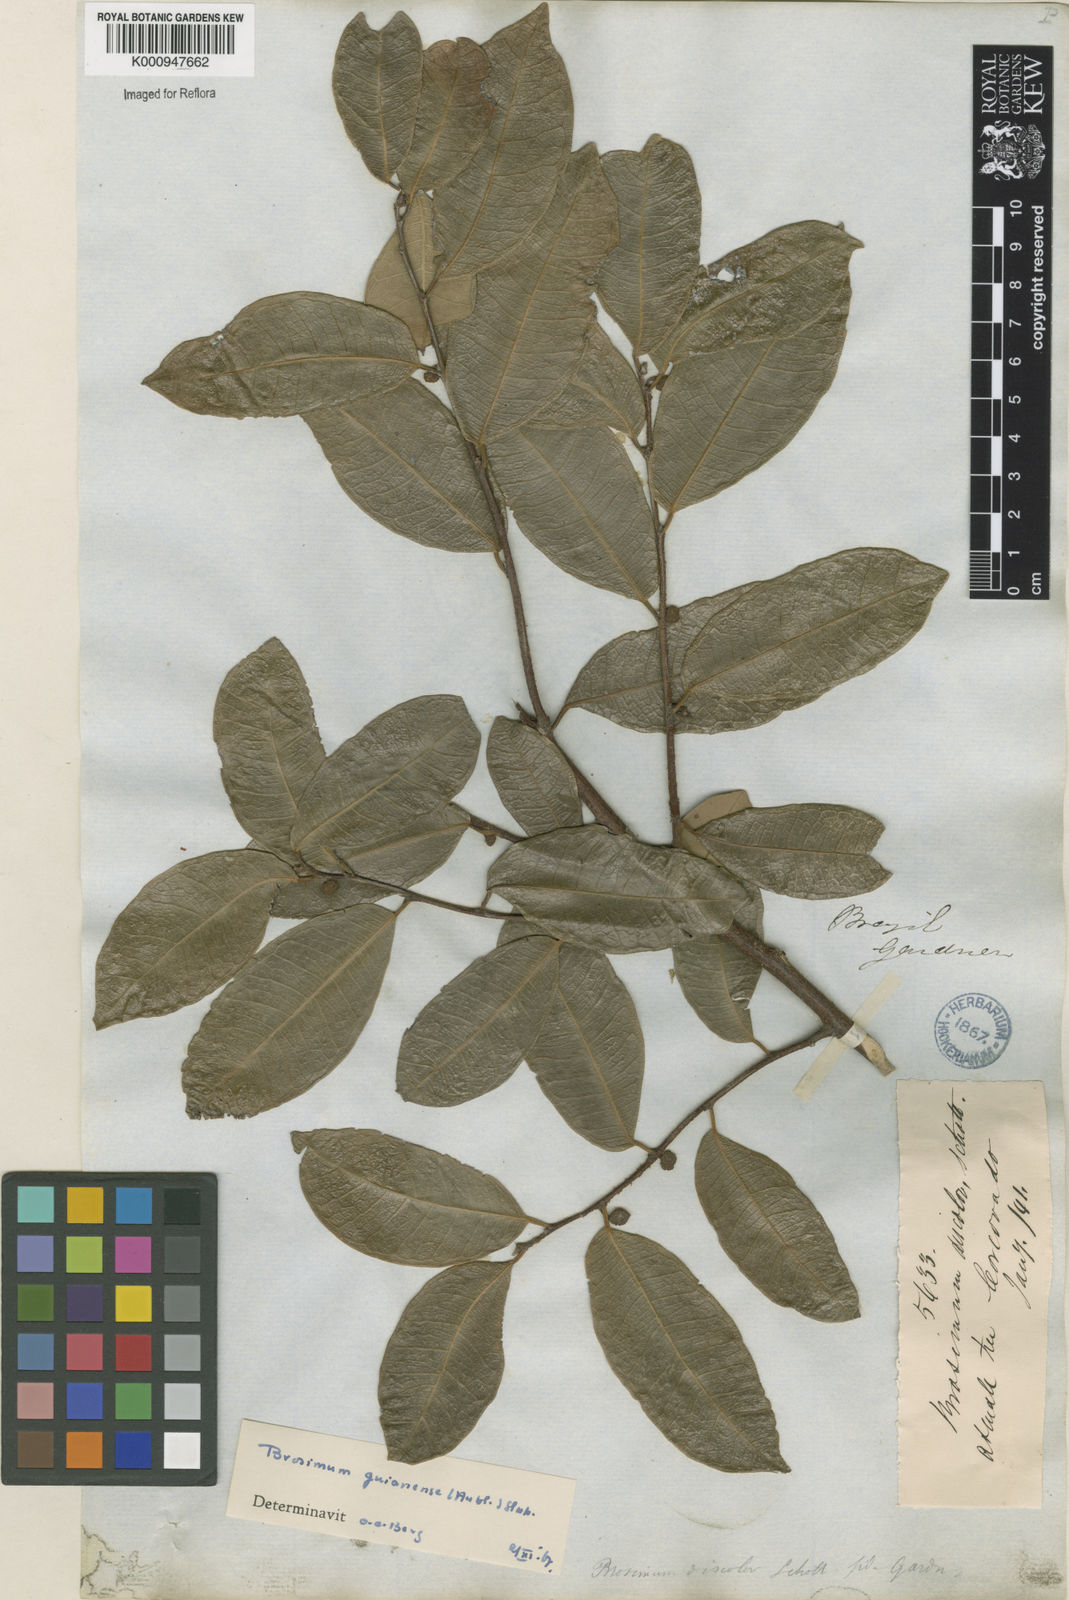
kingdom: Plantae
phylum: Tracheophyta
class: Magnoliopsida
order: Rosales
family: Moraceae
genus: Brosimum
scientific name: Brosimum
